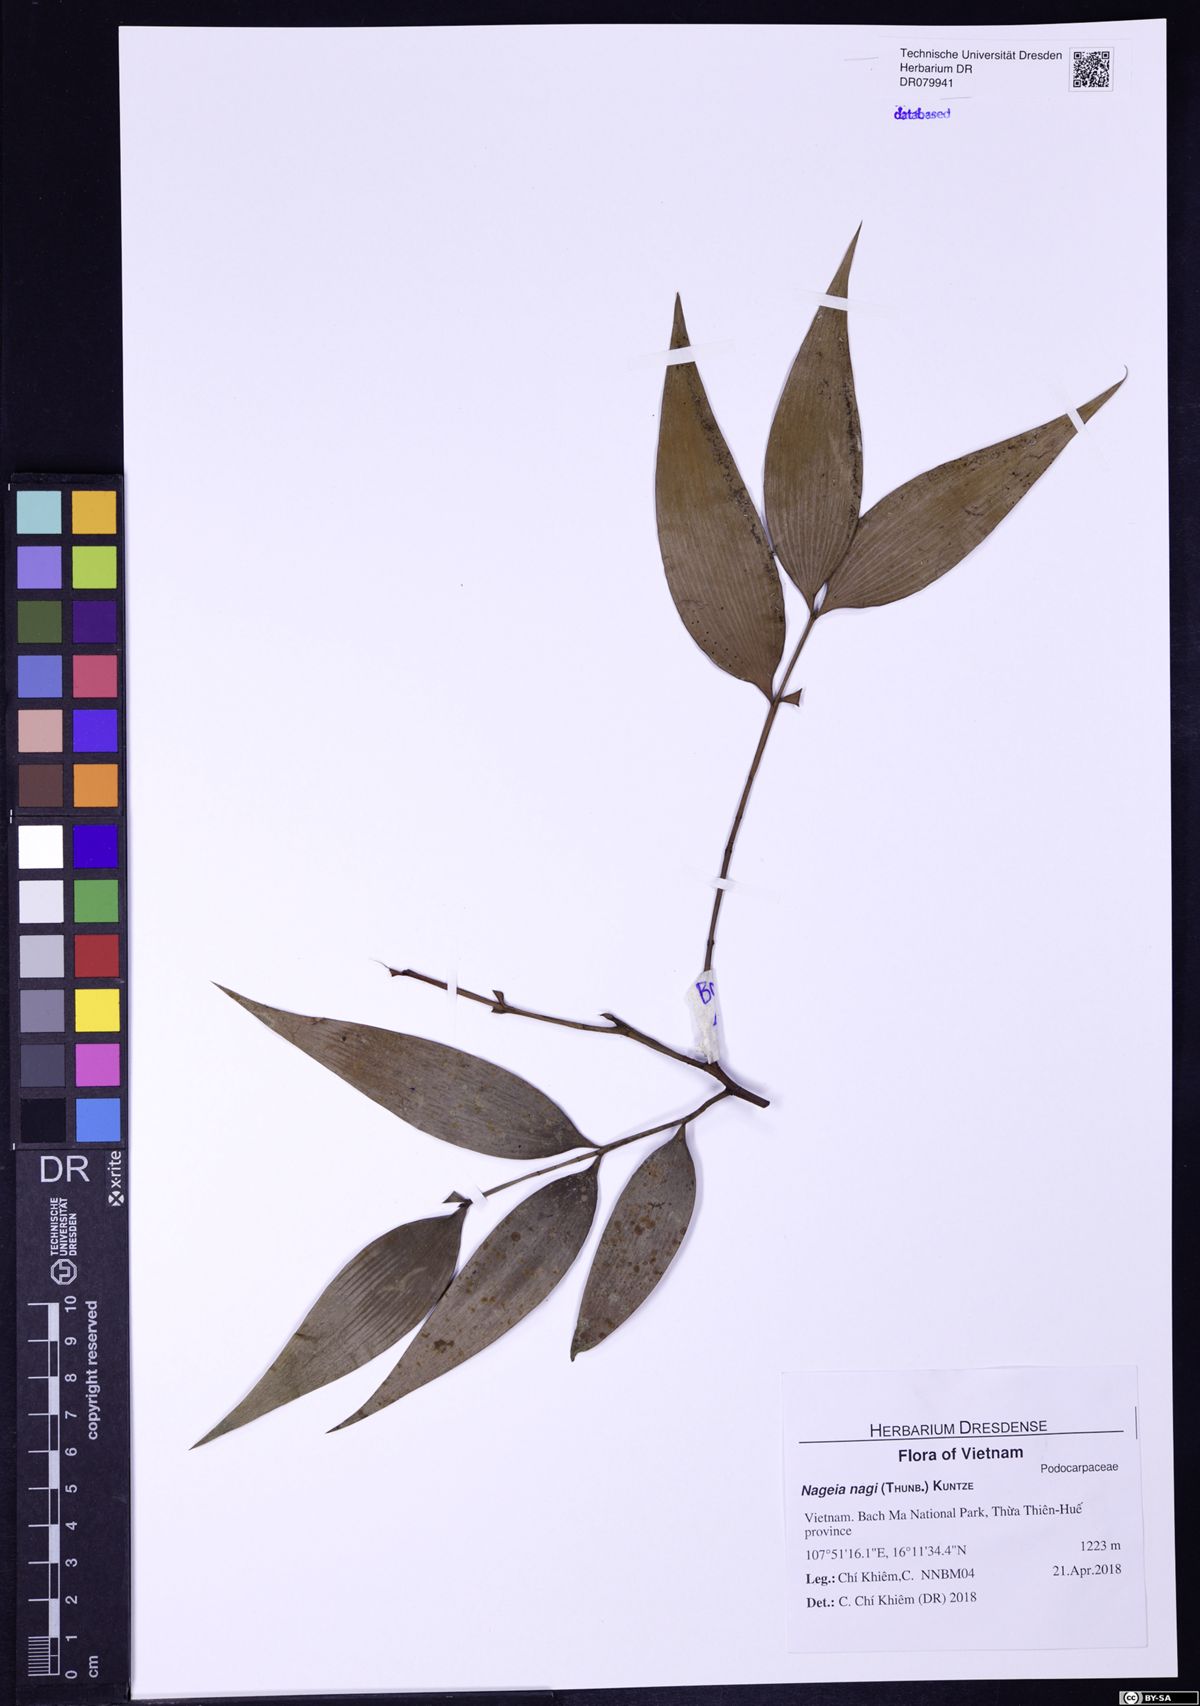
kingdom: Plantae
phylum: Tracheophyta
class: Pinopsida
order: Pinales
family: Podocarpaceae
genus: Nageia
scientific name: Nageia nagi
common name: Kaphal
